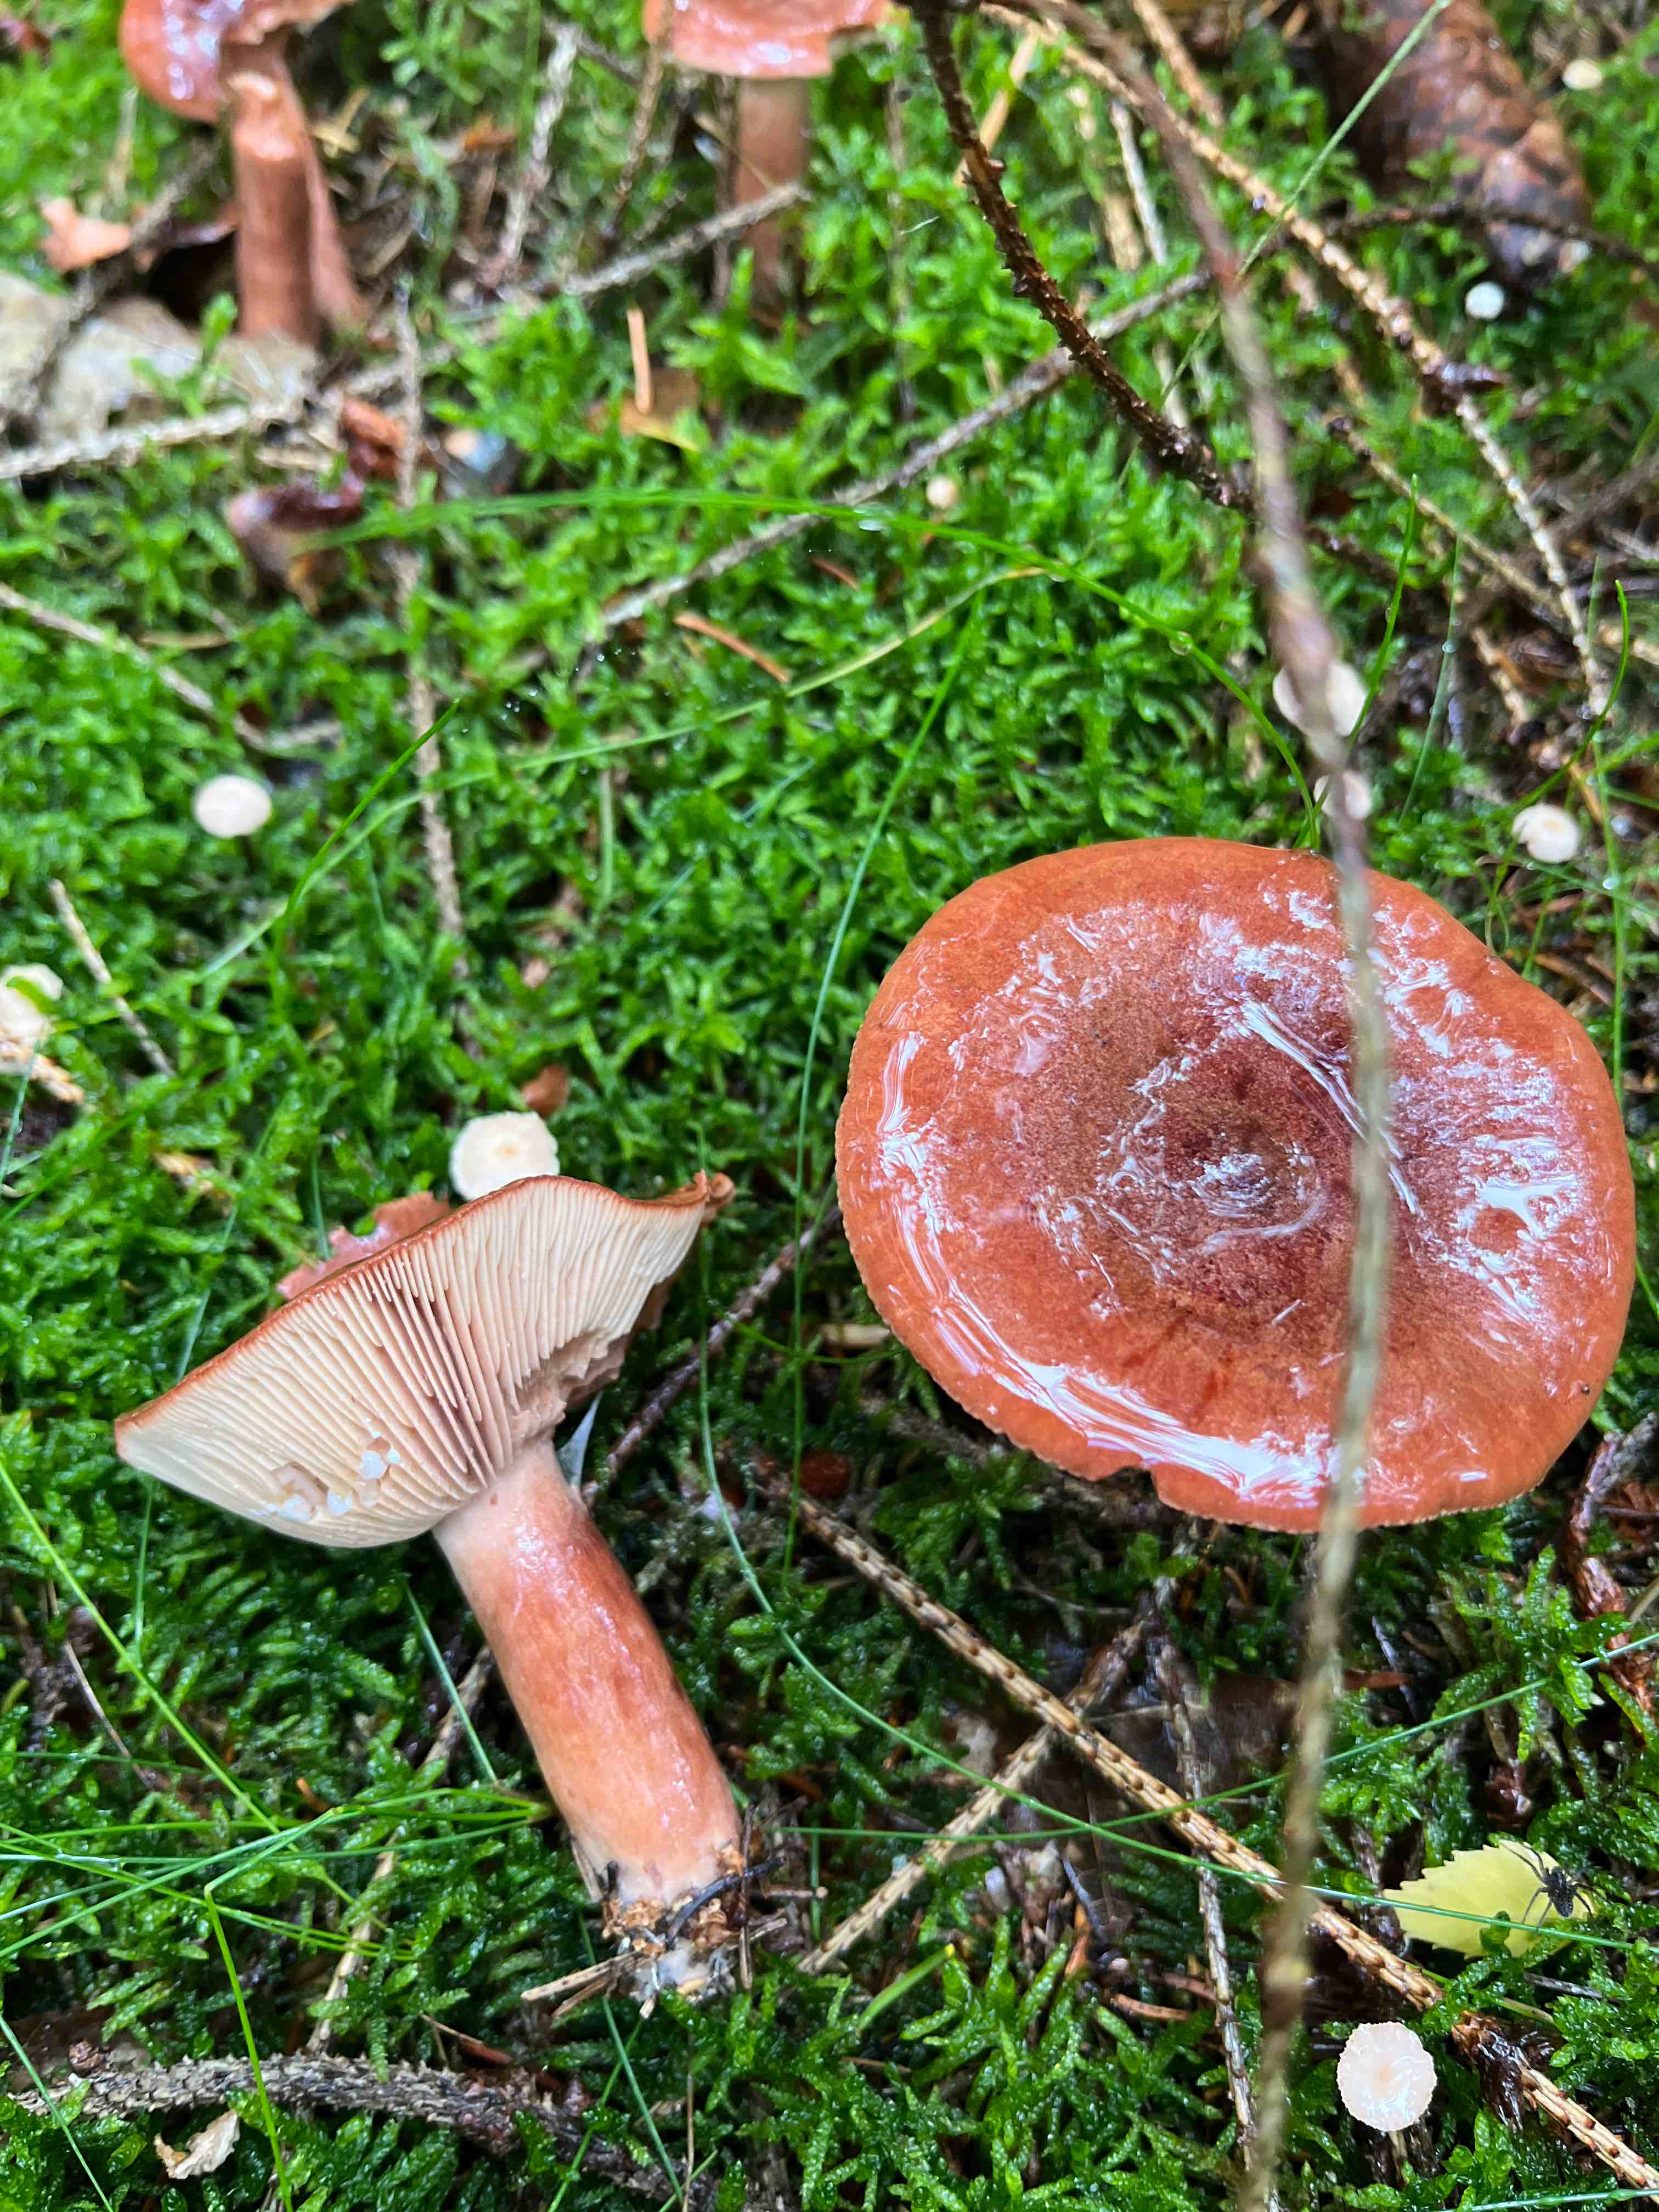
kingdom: Fungi
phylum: Basidiomycota
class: Agaricomycetes
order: Russulales
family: Russulaceae
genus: Lactarius
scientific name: Lactarius rufus
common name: rødbrun mælkehat
